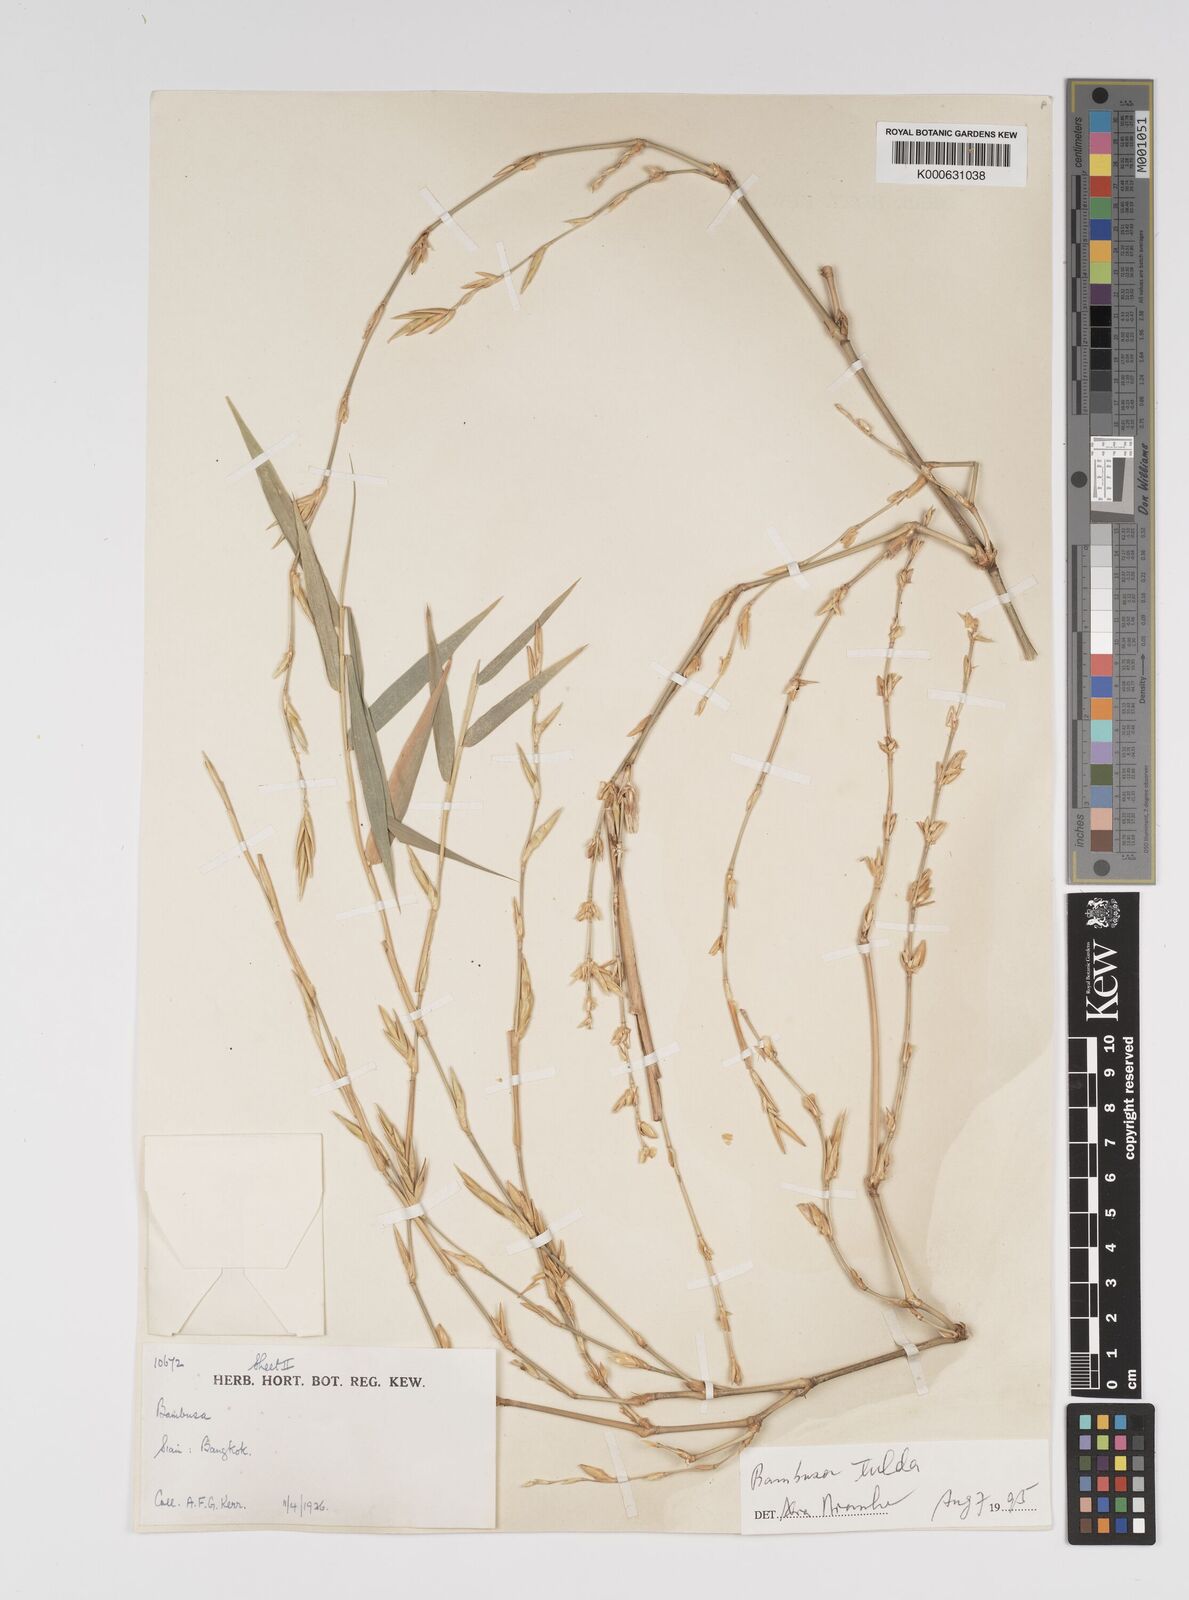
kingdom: Plantae
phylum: Tracheophyta
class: Liliopsida
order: Poales
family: Poaceae
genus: Bambusa
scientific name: Bambusa
